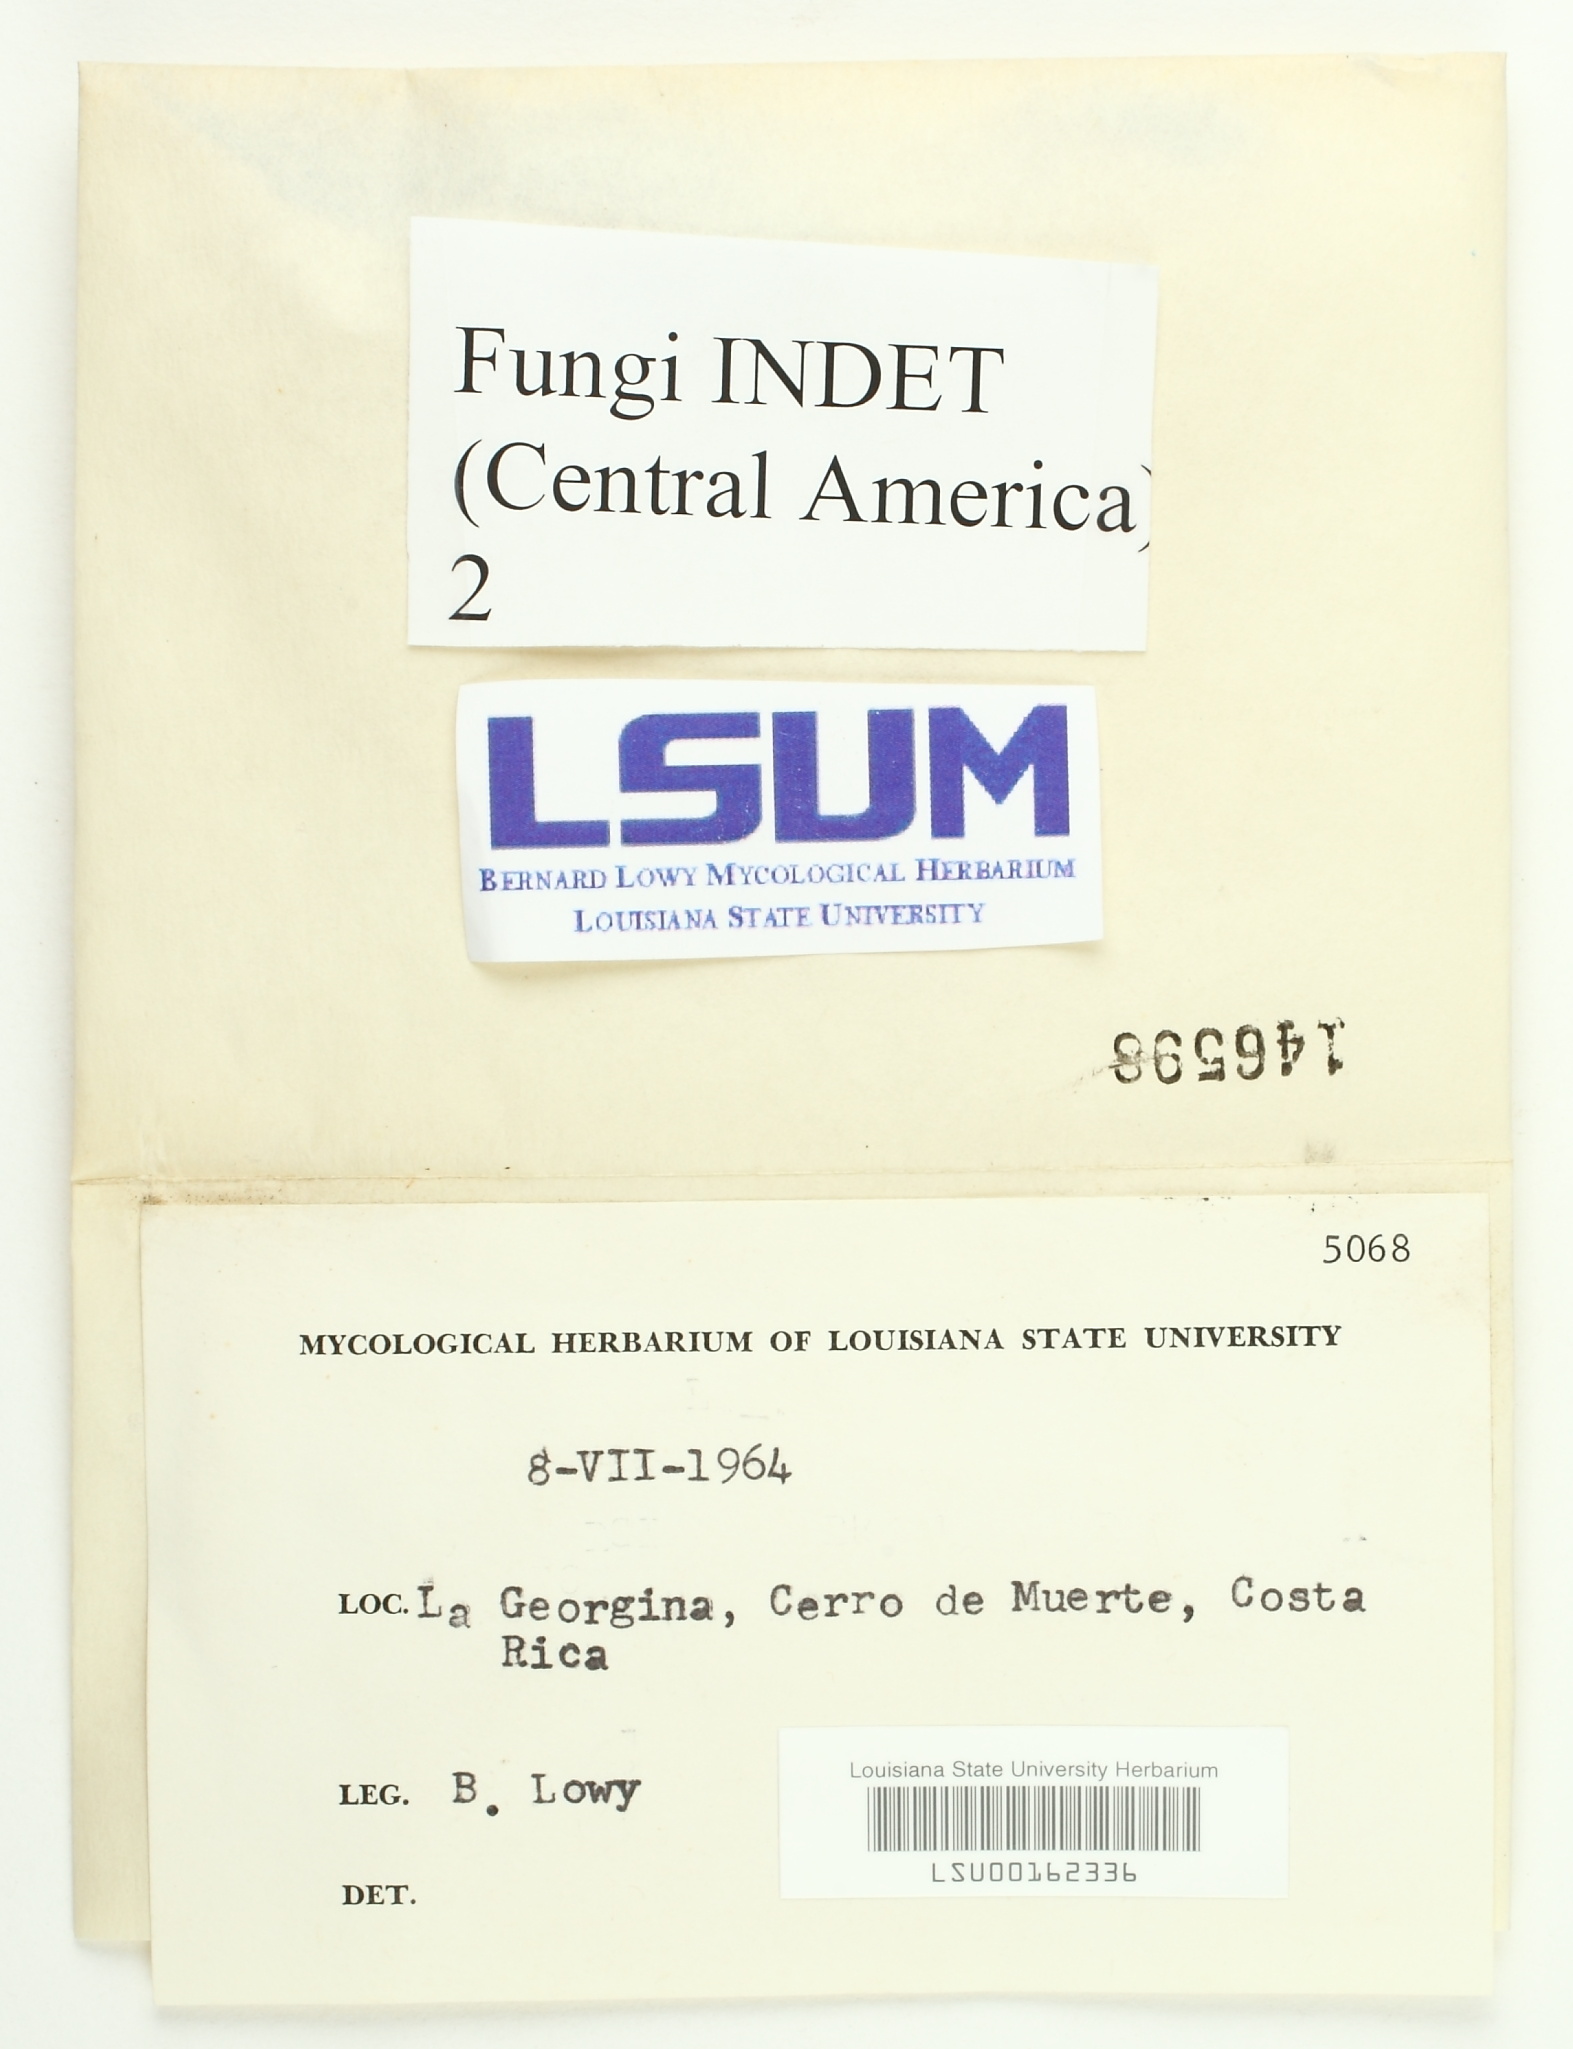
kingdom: Fungi
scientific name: Fungi
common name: Fungi
